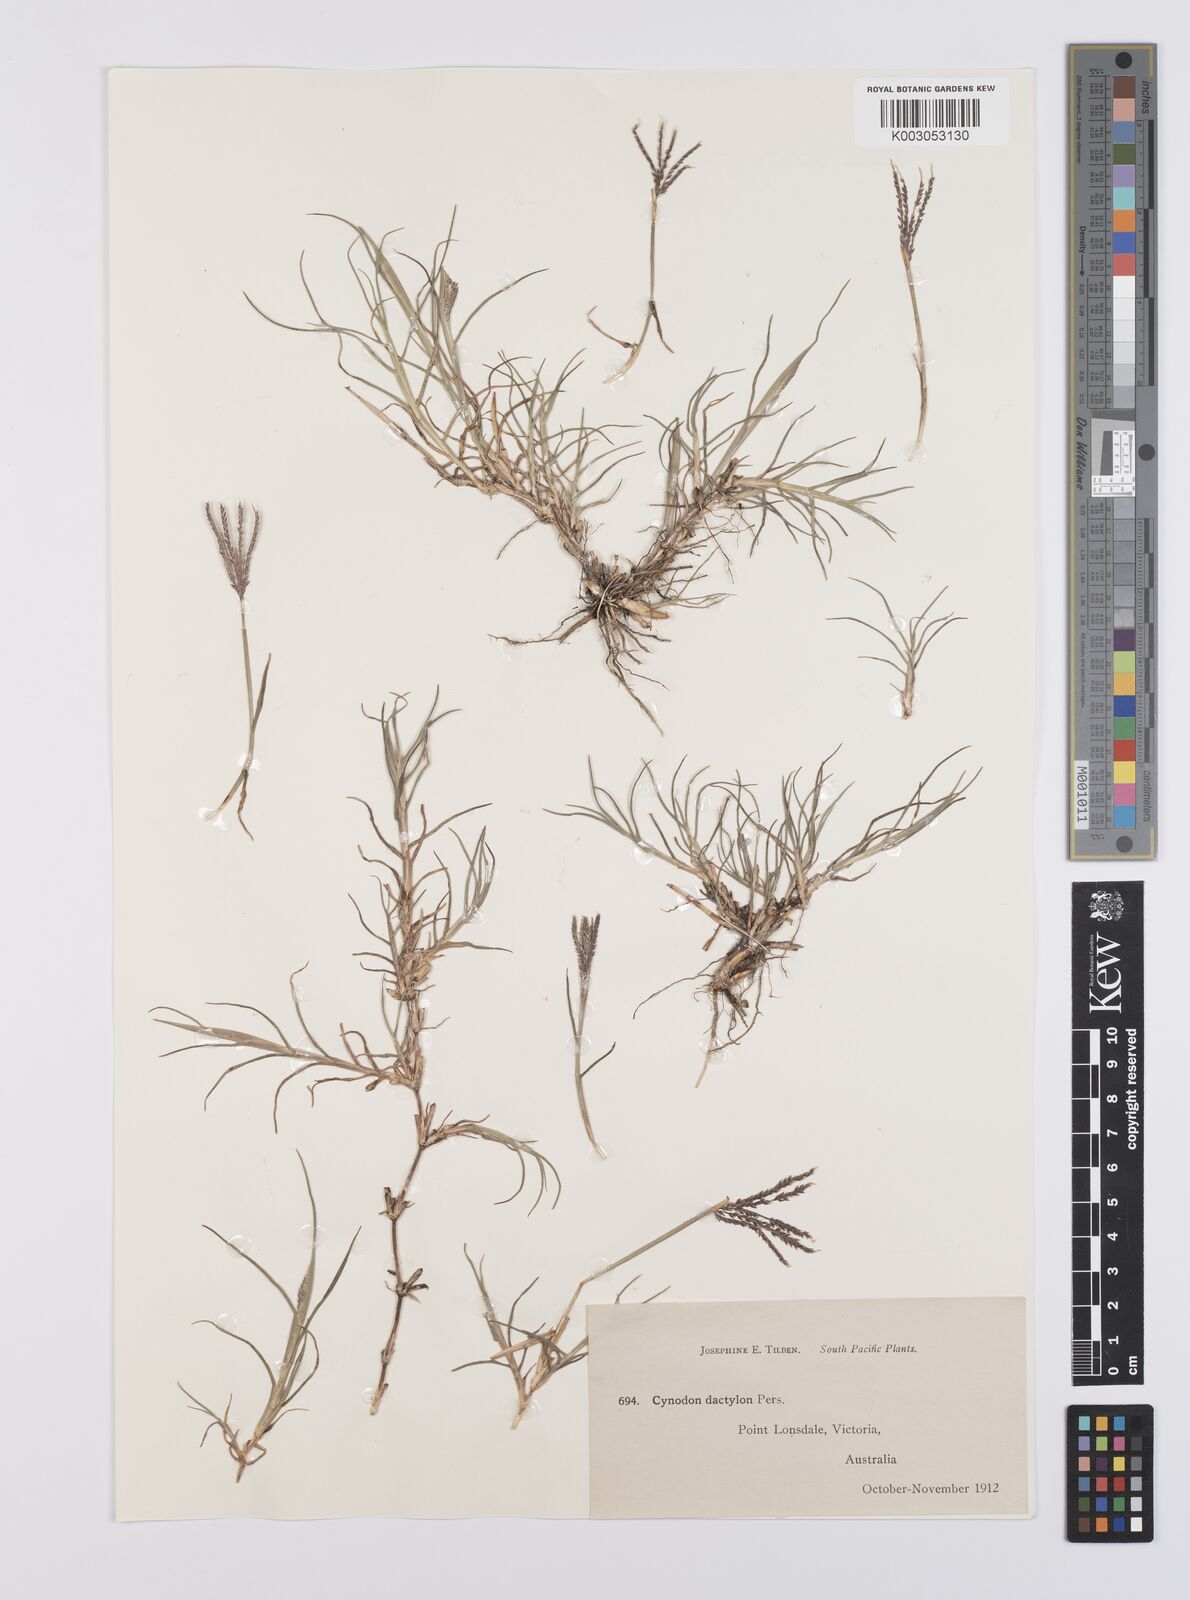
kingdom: Plantae
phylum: Tracheophyta
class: Liliopsida
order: Poales
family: Poaceae
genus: Cynodon
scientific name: Cynodon dactylon
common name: Bermuda grass
